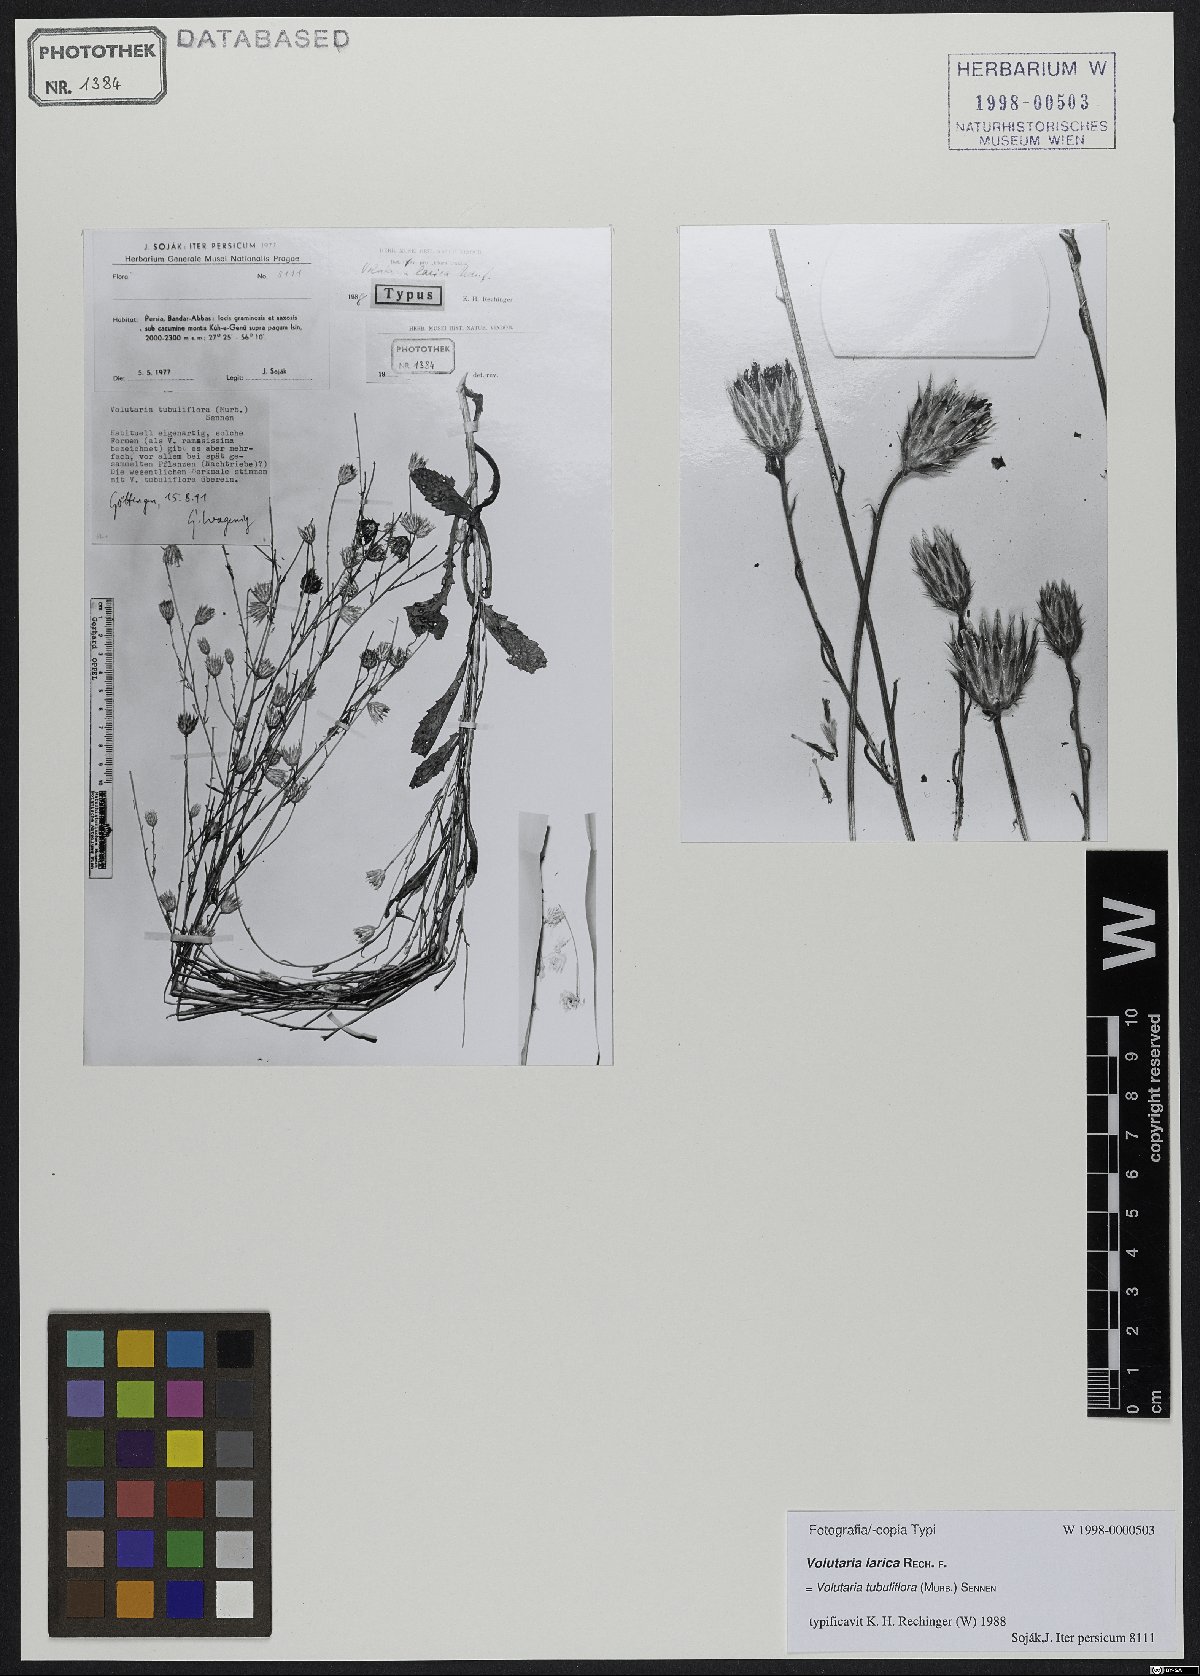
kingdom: Plantae
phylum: Tracheophyta
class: Magnoliopsida
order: Asterales
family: Asteraceae
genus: Volutaria
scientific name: Volutaria tubuliflora
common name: Desert knapweed
